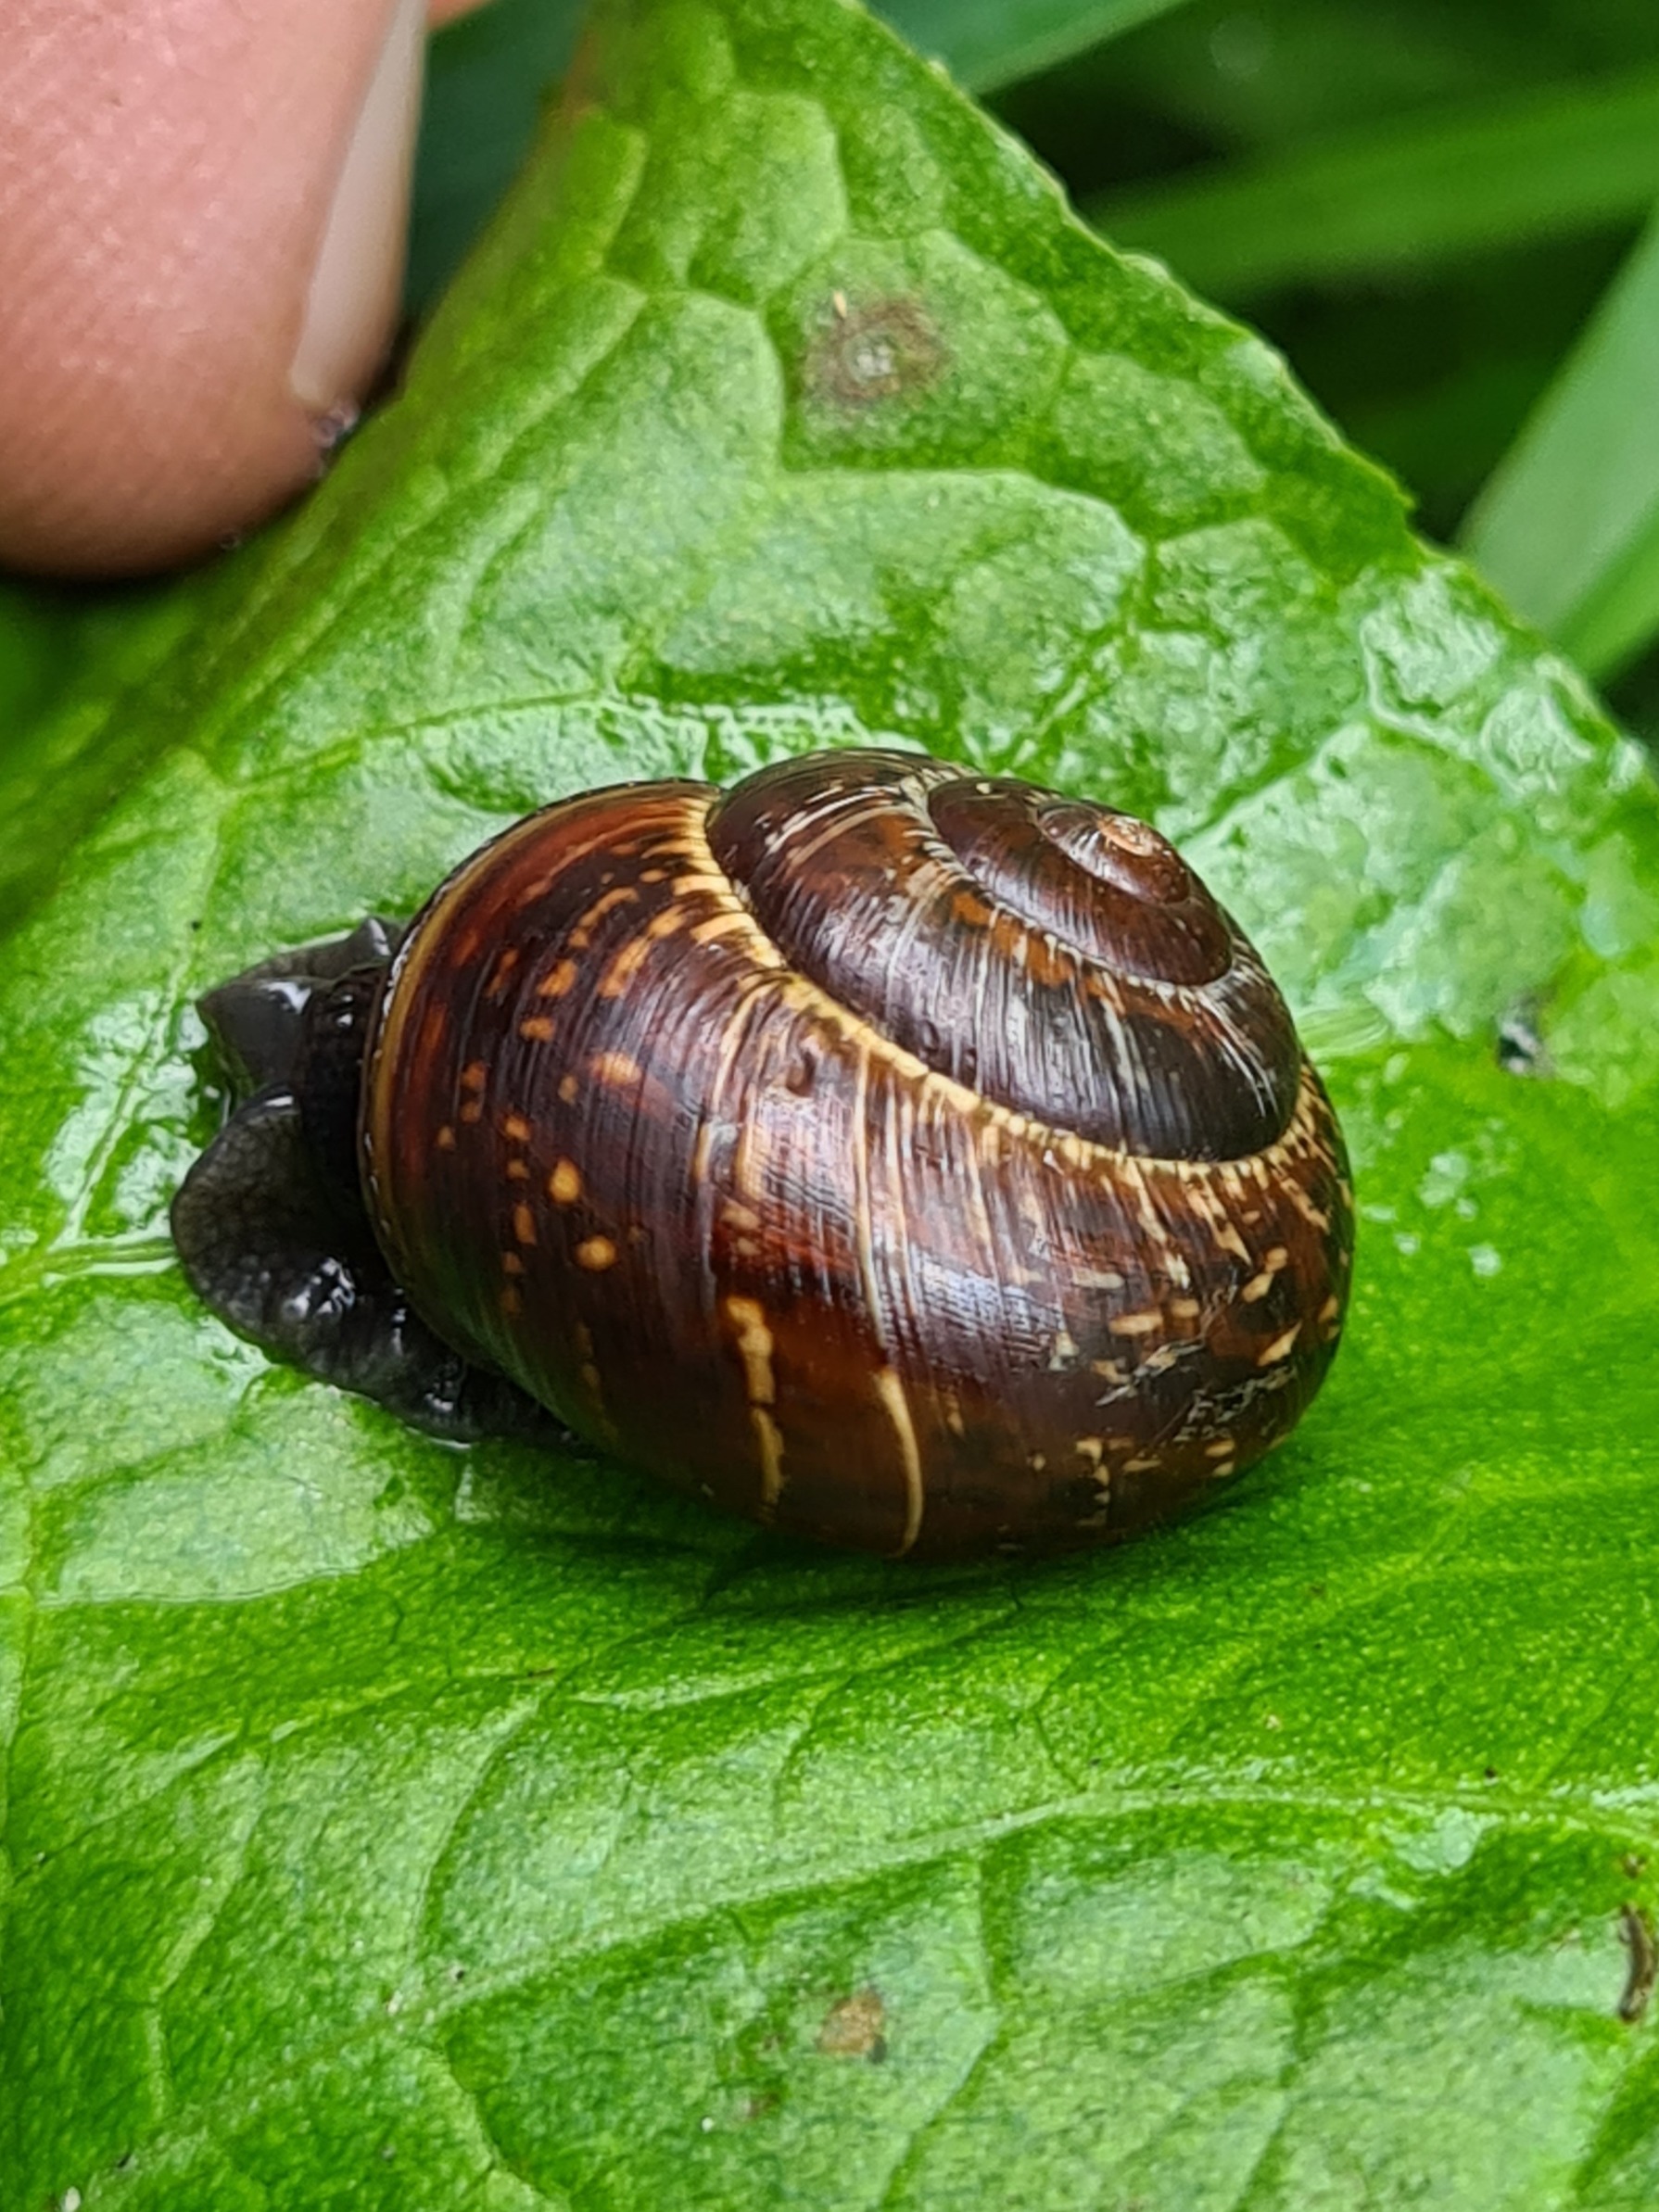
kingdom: Animalia
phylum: Mollusca
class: Gastropoda
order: Stylommatophora
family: Helicidae
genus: Arianta
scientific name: Arianta arbustorum
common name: Kratsnegl
